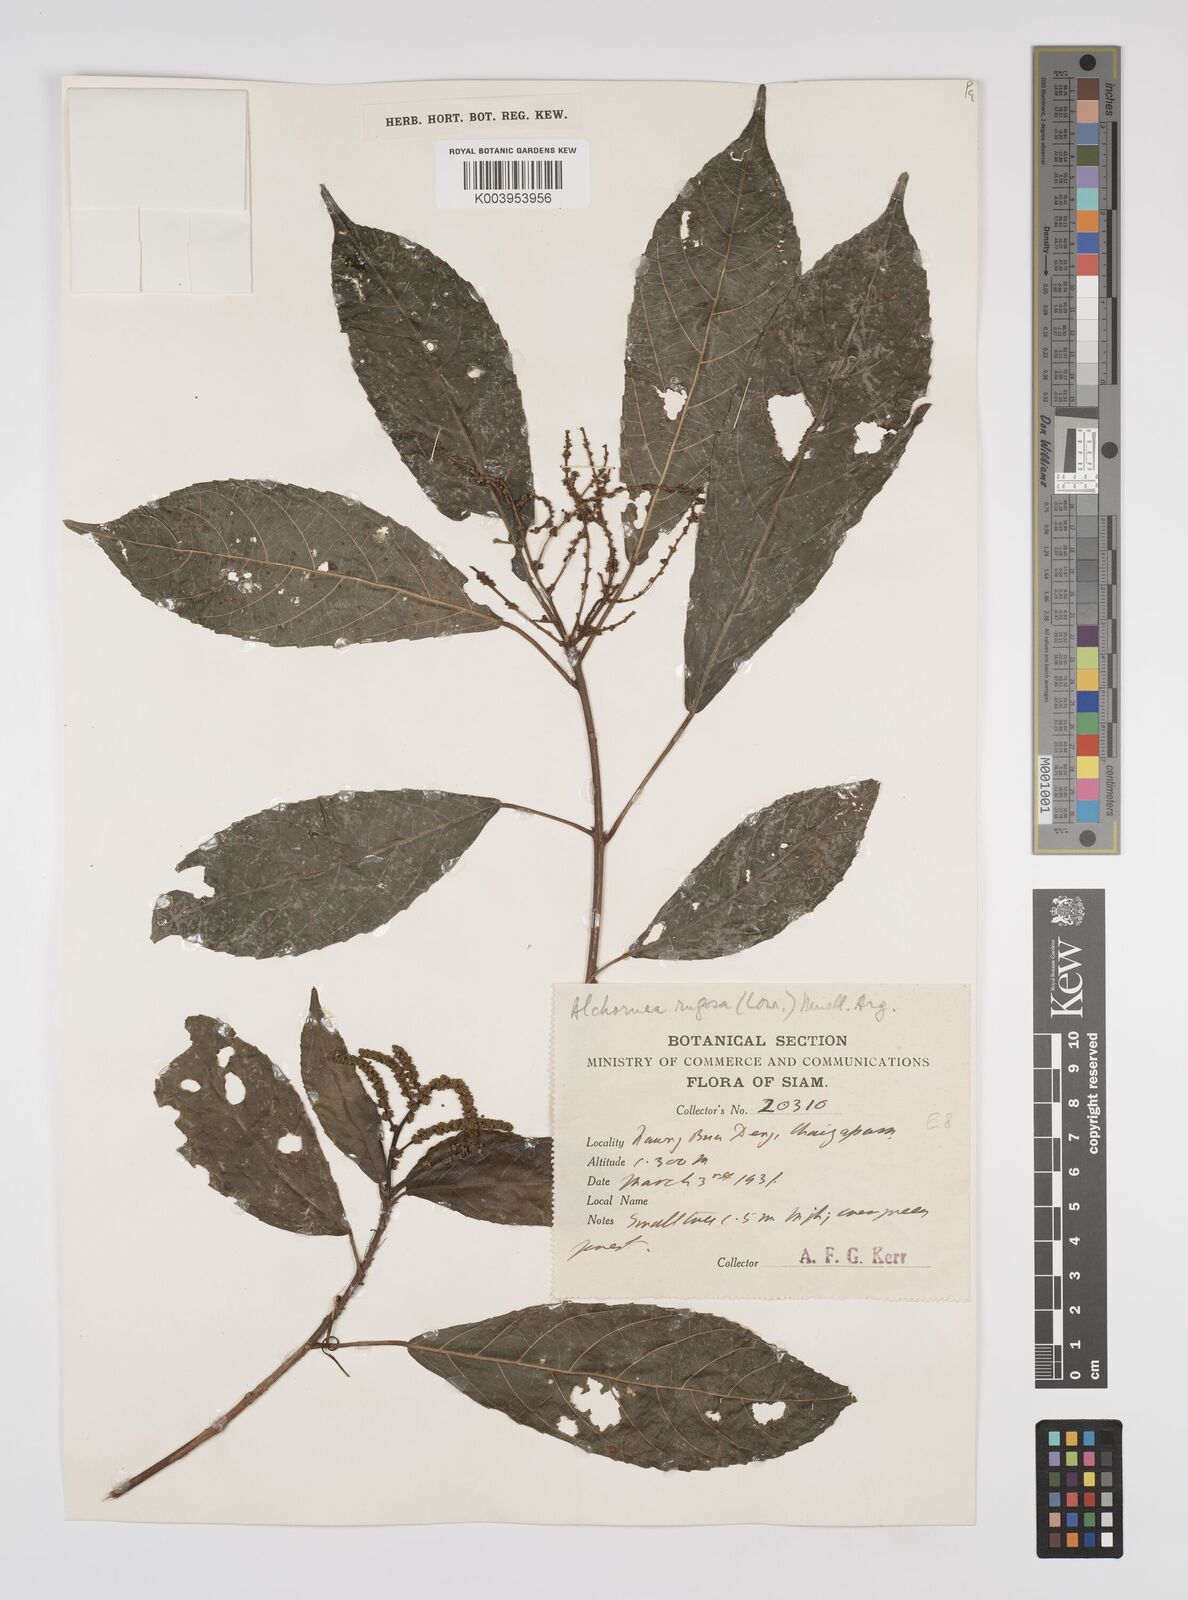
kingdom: Plantae
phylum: Tracheophyta
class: Magnoliopsida
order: Malpighiales
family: Euphorbiaceae
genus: Alchornea
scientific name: Alchornea rugosa
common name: Alchorntree
